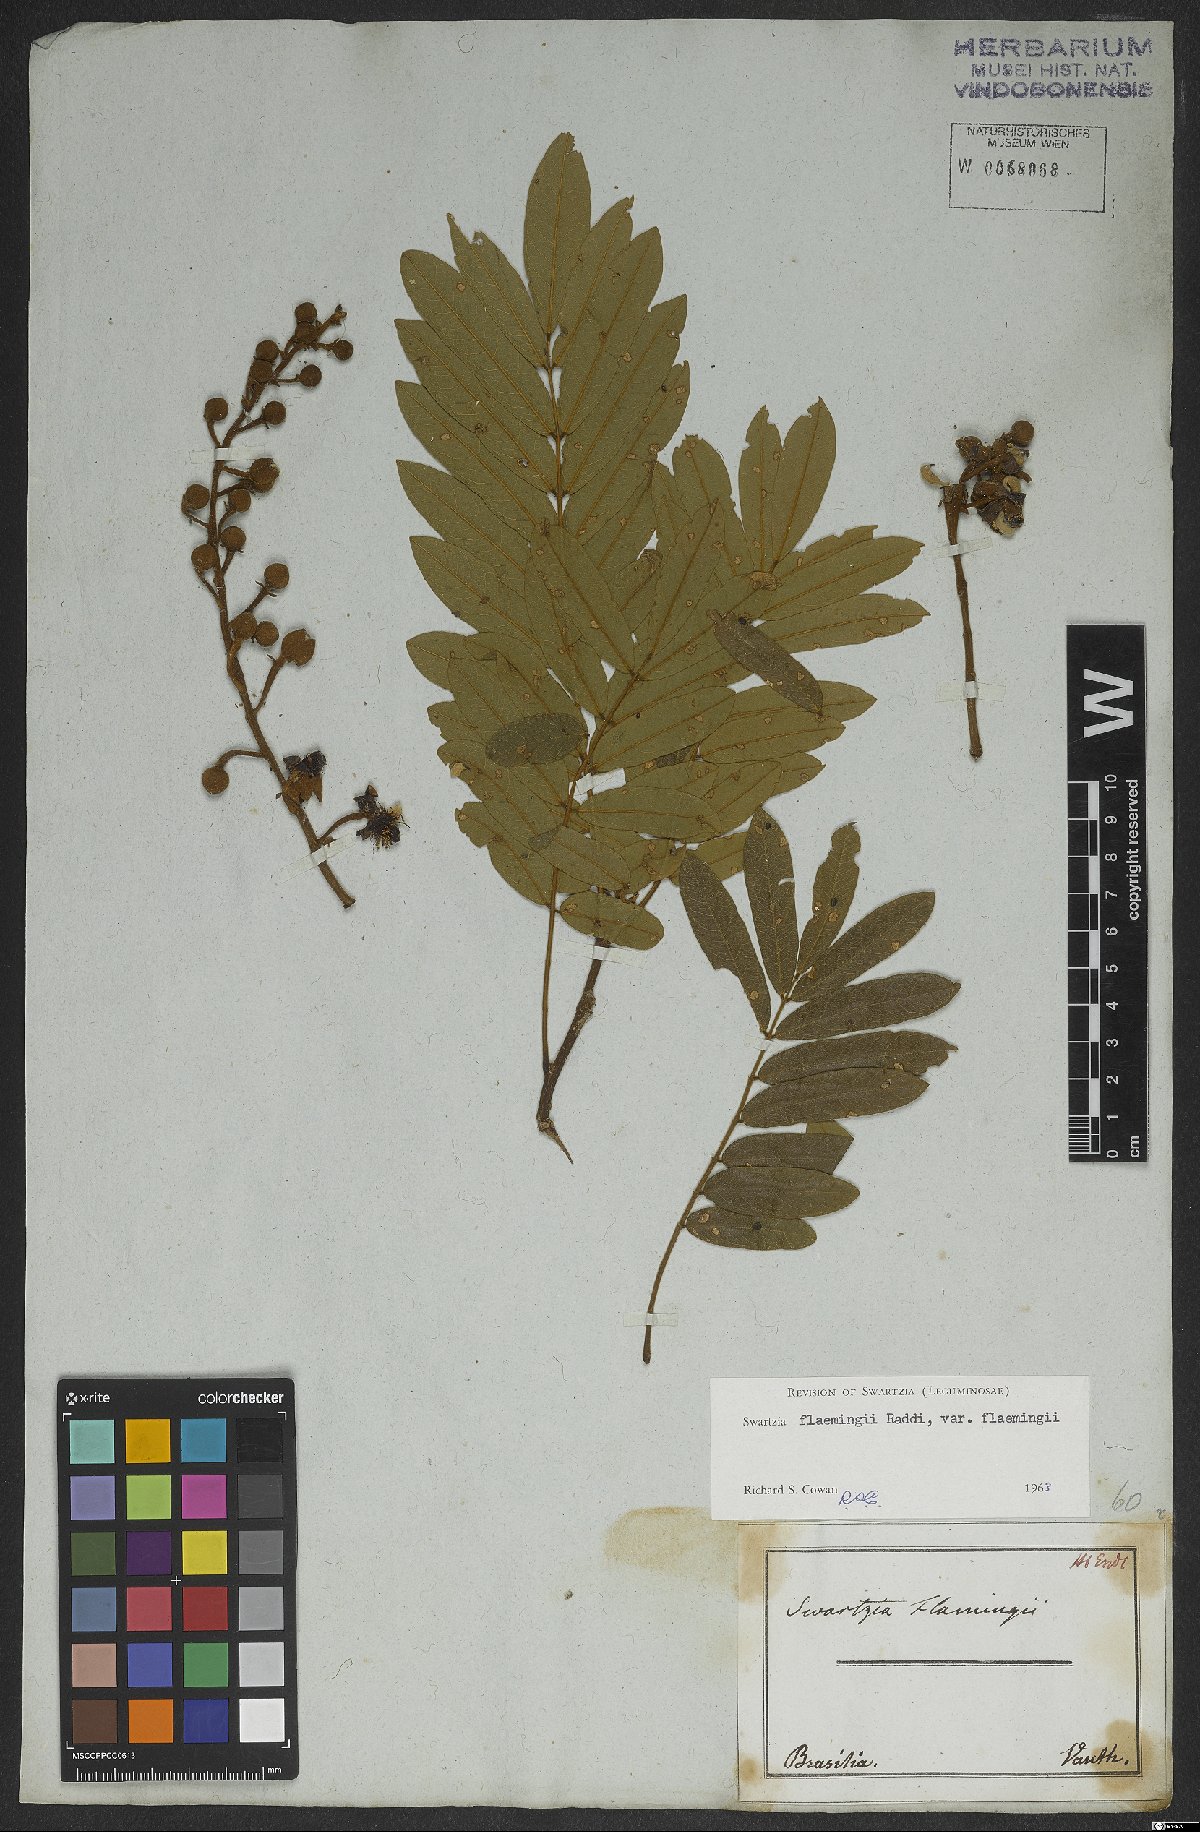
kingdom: Plantae
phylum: Tracheophyta
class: Magnoliopsida
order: Fabales
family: Fabaceae
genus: Swartzia
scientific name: Swartzia flaemingii
